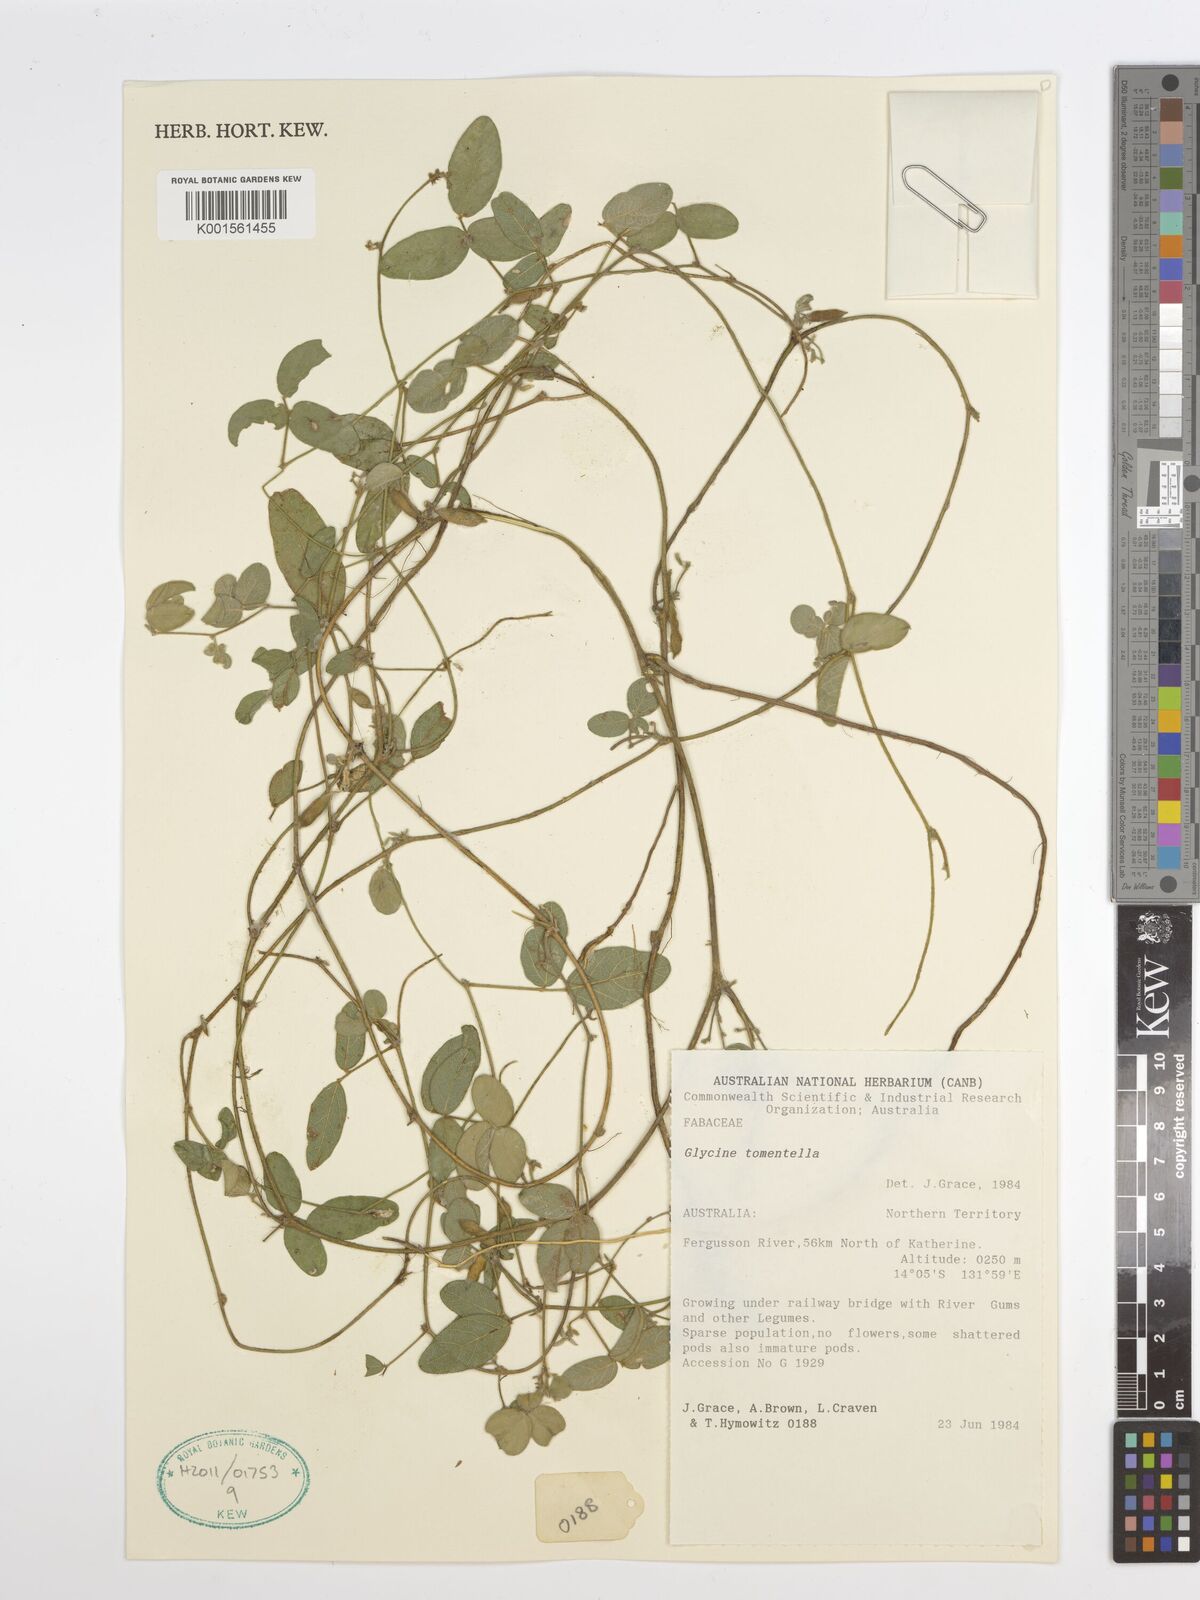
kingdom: Plantae
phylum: Tracheophyta
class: Magnoliopsida
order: Fabales
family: Fabaceae
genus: Glycine
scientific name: Glycine tomentella
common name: Hairy glycine
